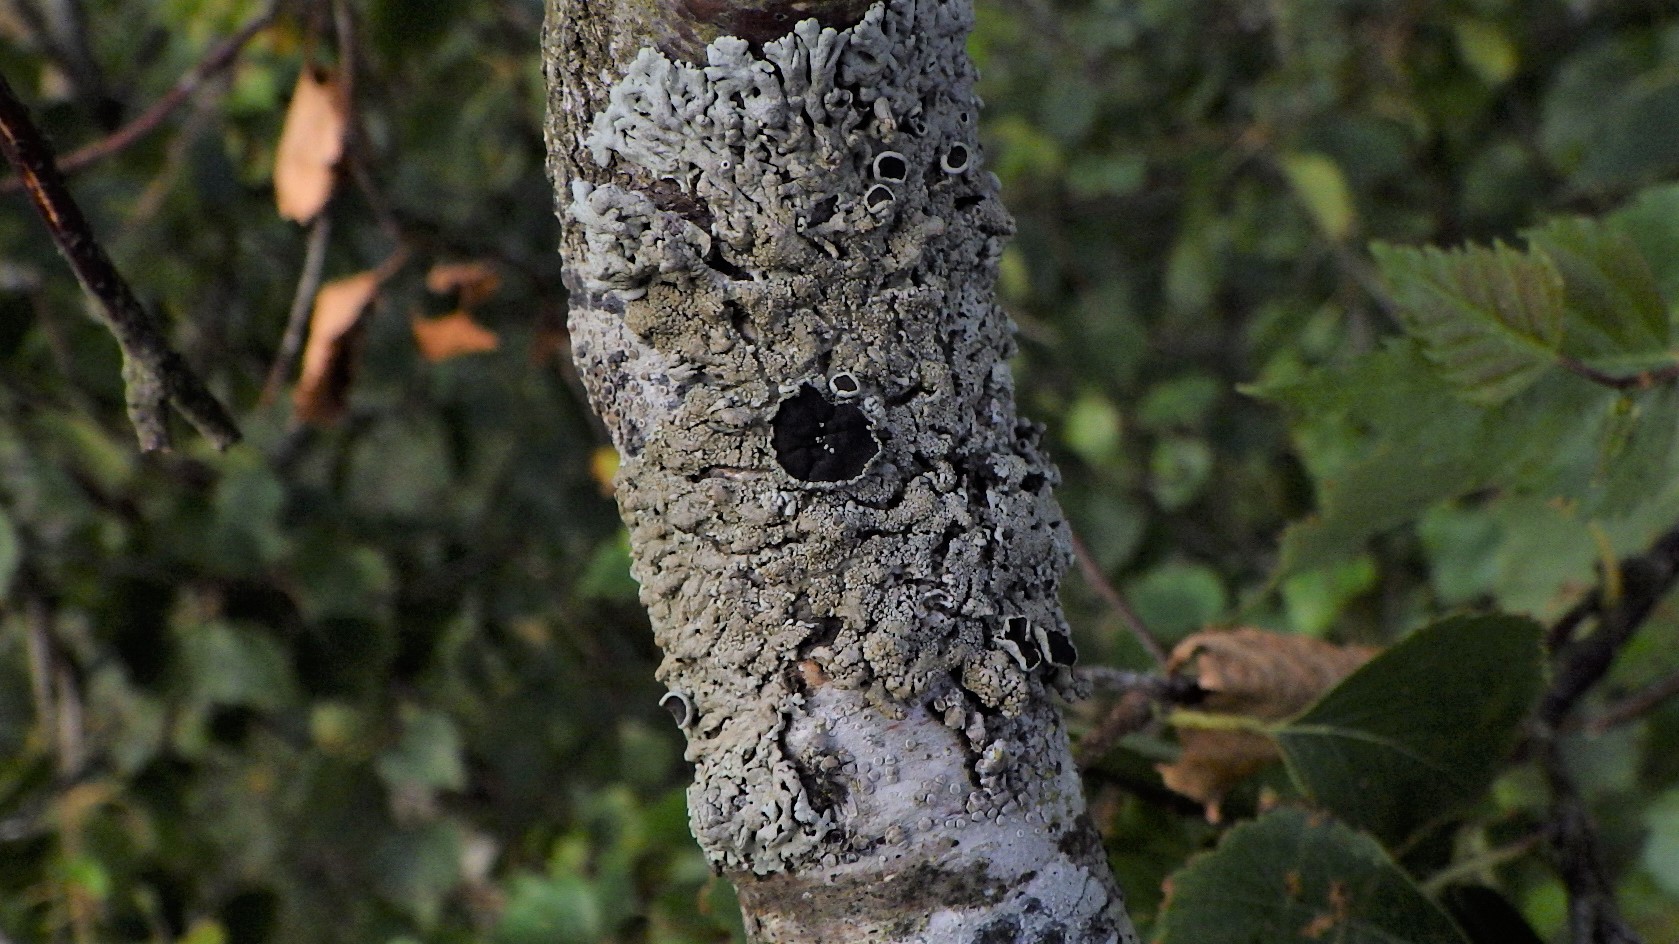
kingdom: Fungi
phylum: Ascomycota
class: Lecanoromycetes
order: Caliciales
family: Physciaceae
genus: Physcia
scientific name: Physcia aipolia
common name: hvidprikket rosetlav
